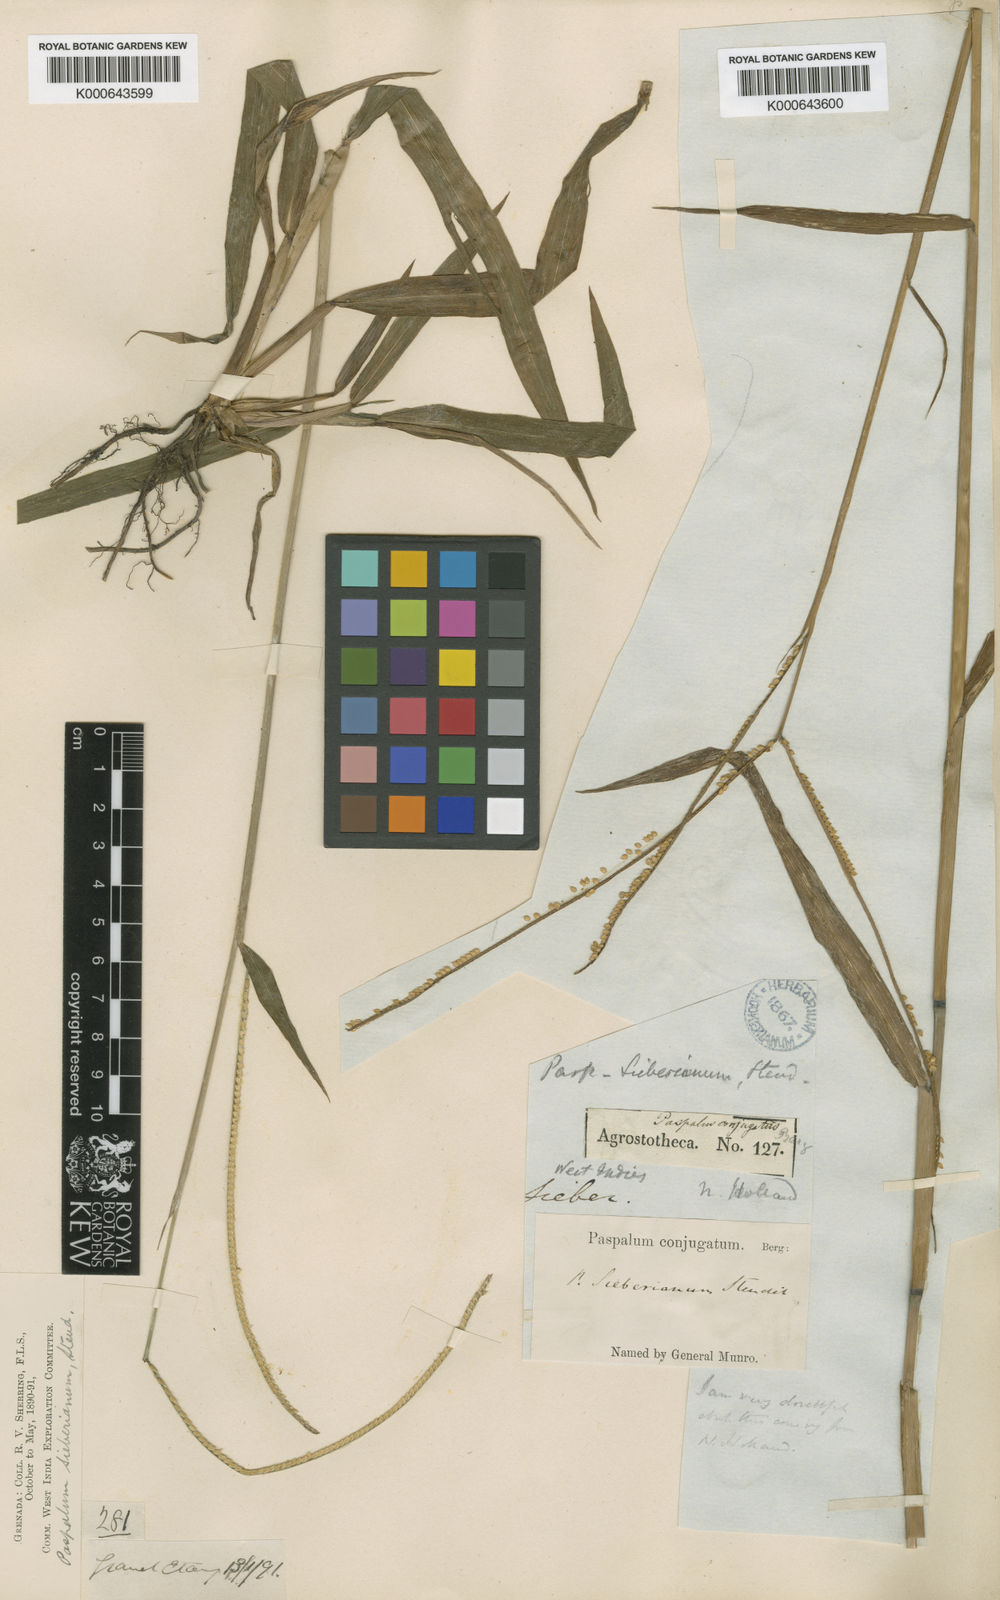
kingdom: Plantae
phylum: Tracheophyta
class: Liliopsida
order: Poales
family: Poaceae
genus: Paspalum
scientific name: Paspalum conjugatum
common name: Hilograss
